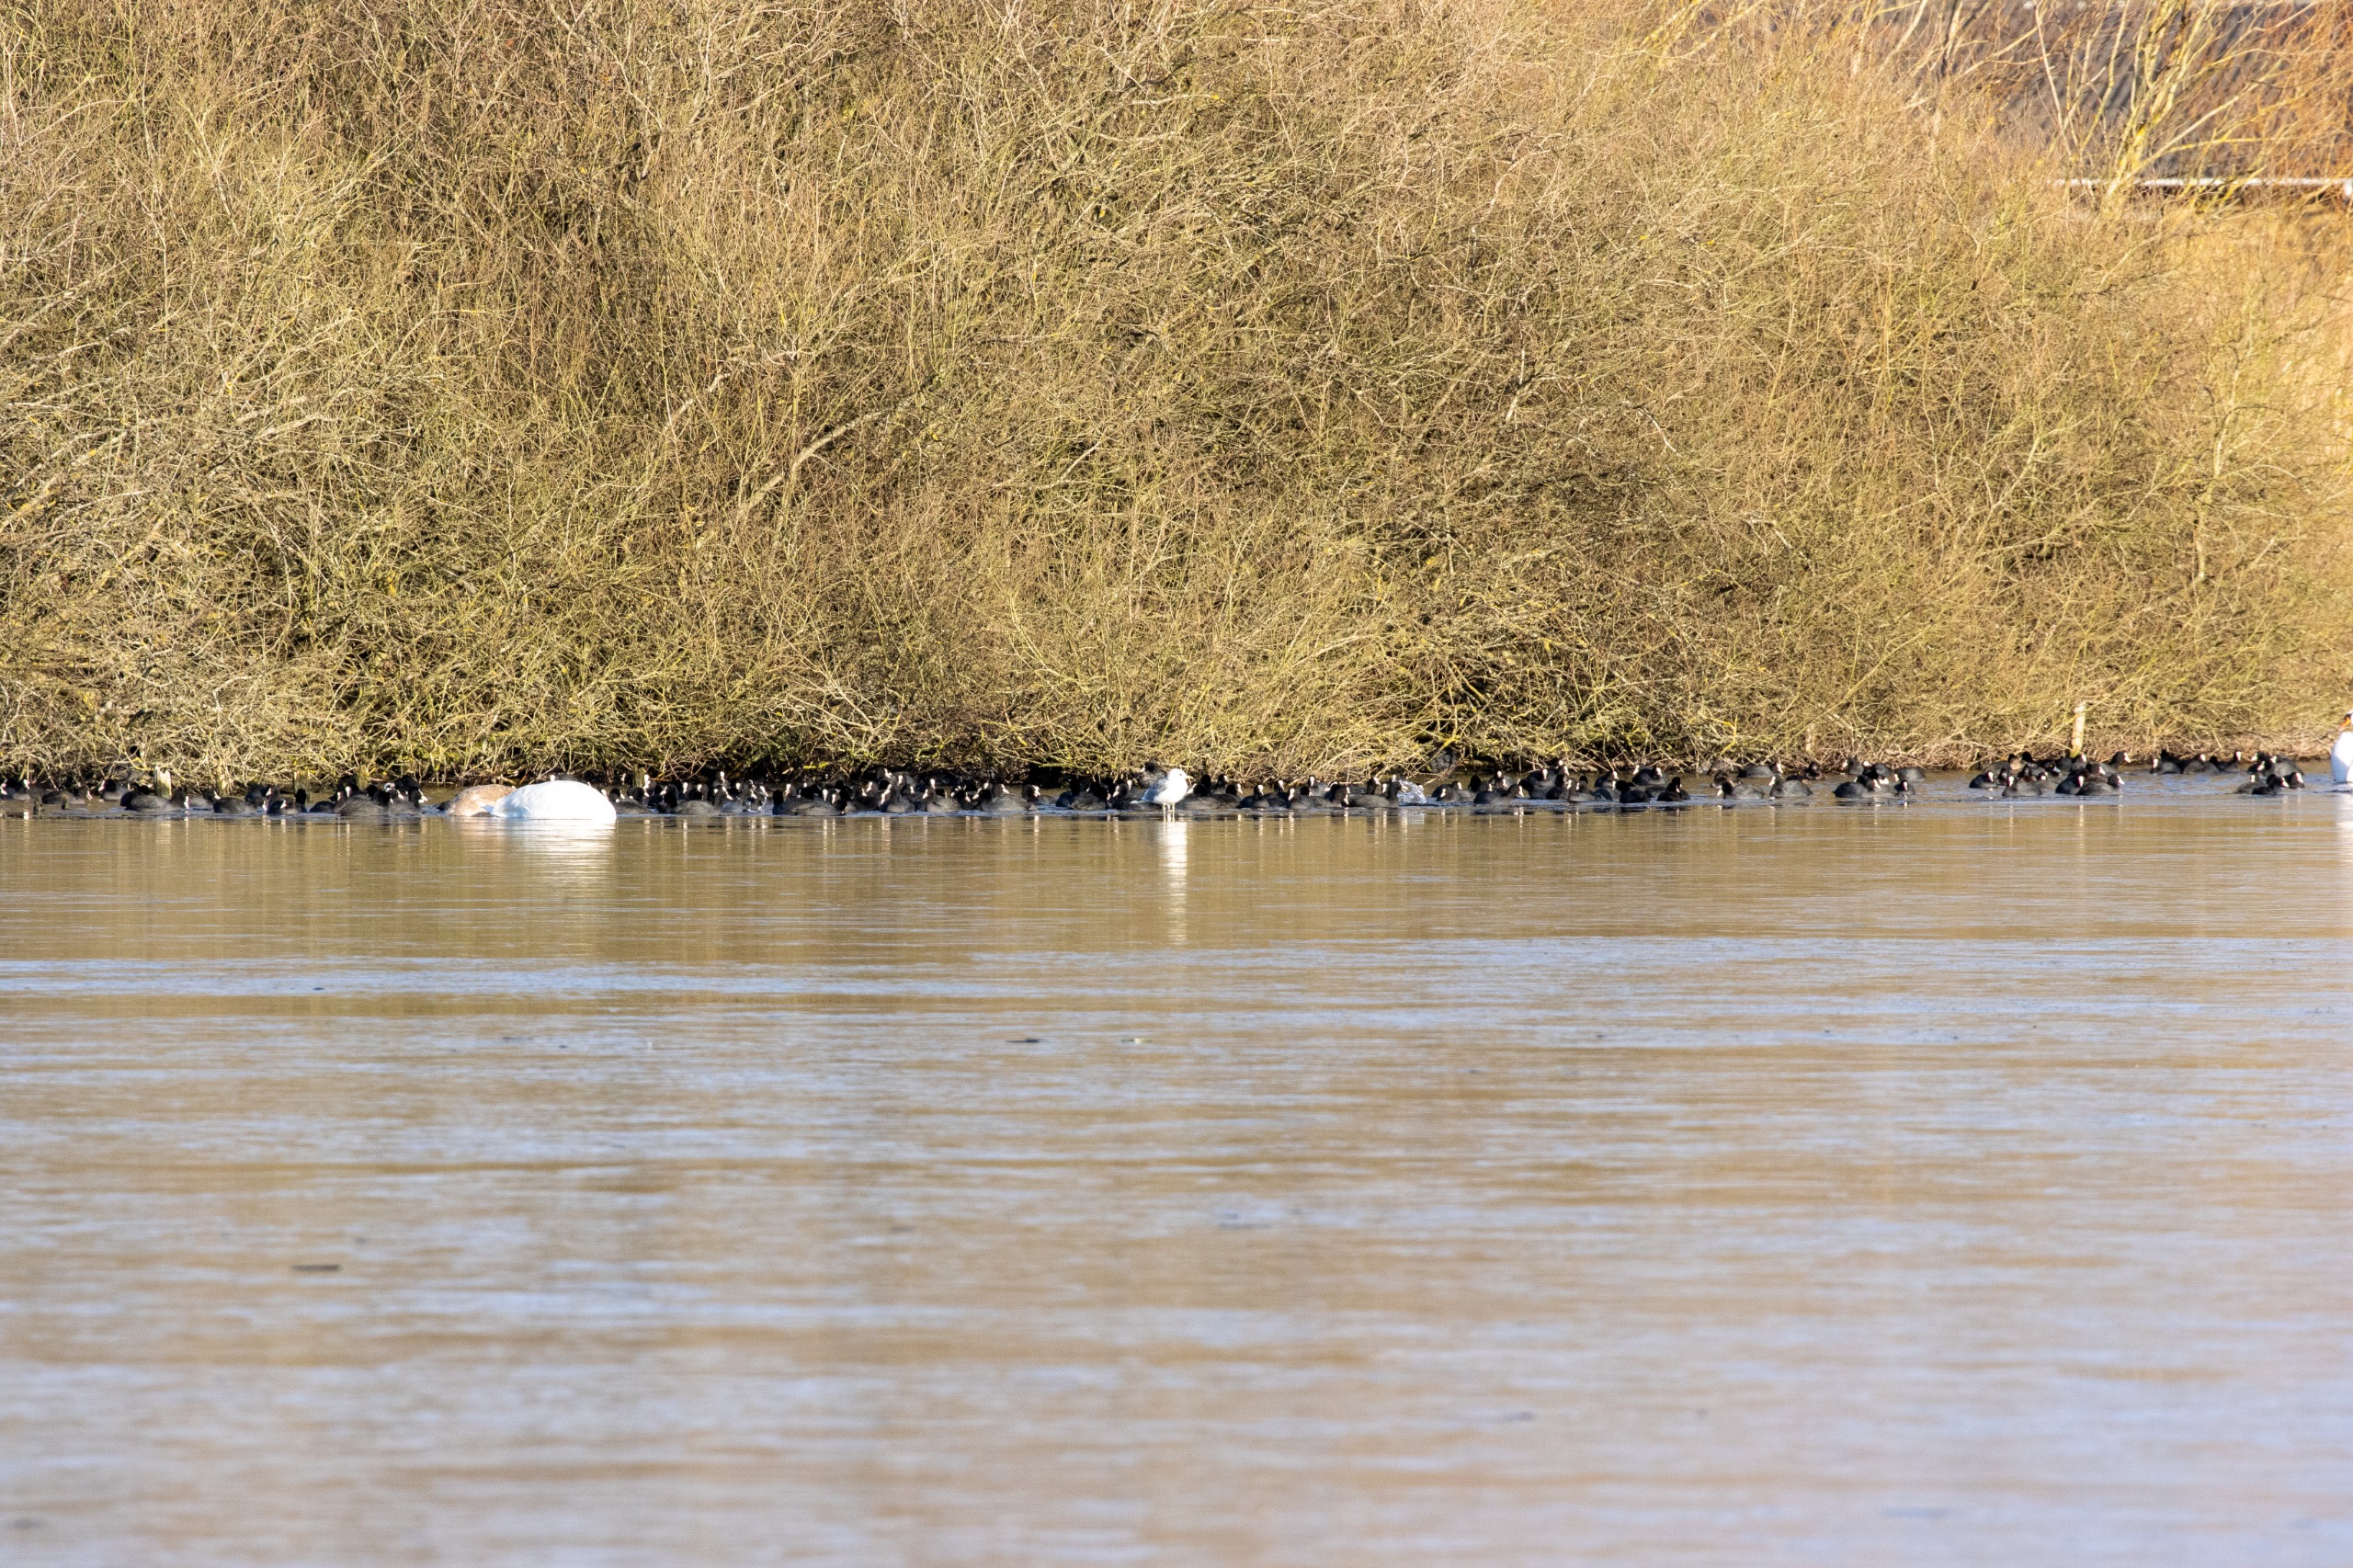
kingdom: Animalia
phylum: Chordata
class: Aves
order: Gruiformes
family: Rallidae
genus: Fulica
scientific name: Fulica atra
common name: Blishøne
